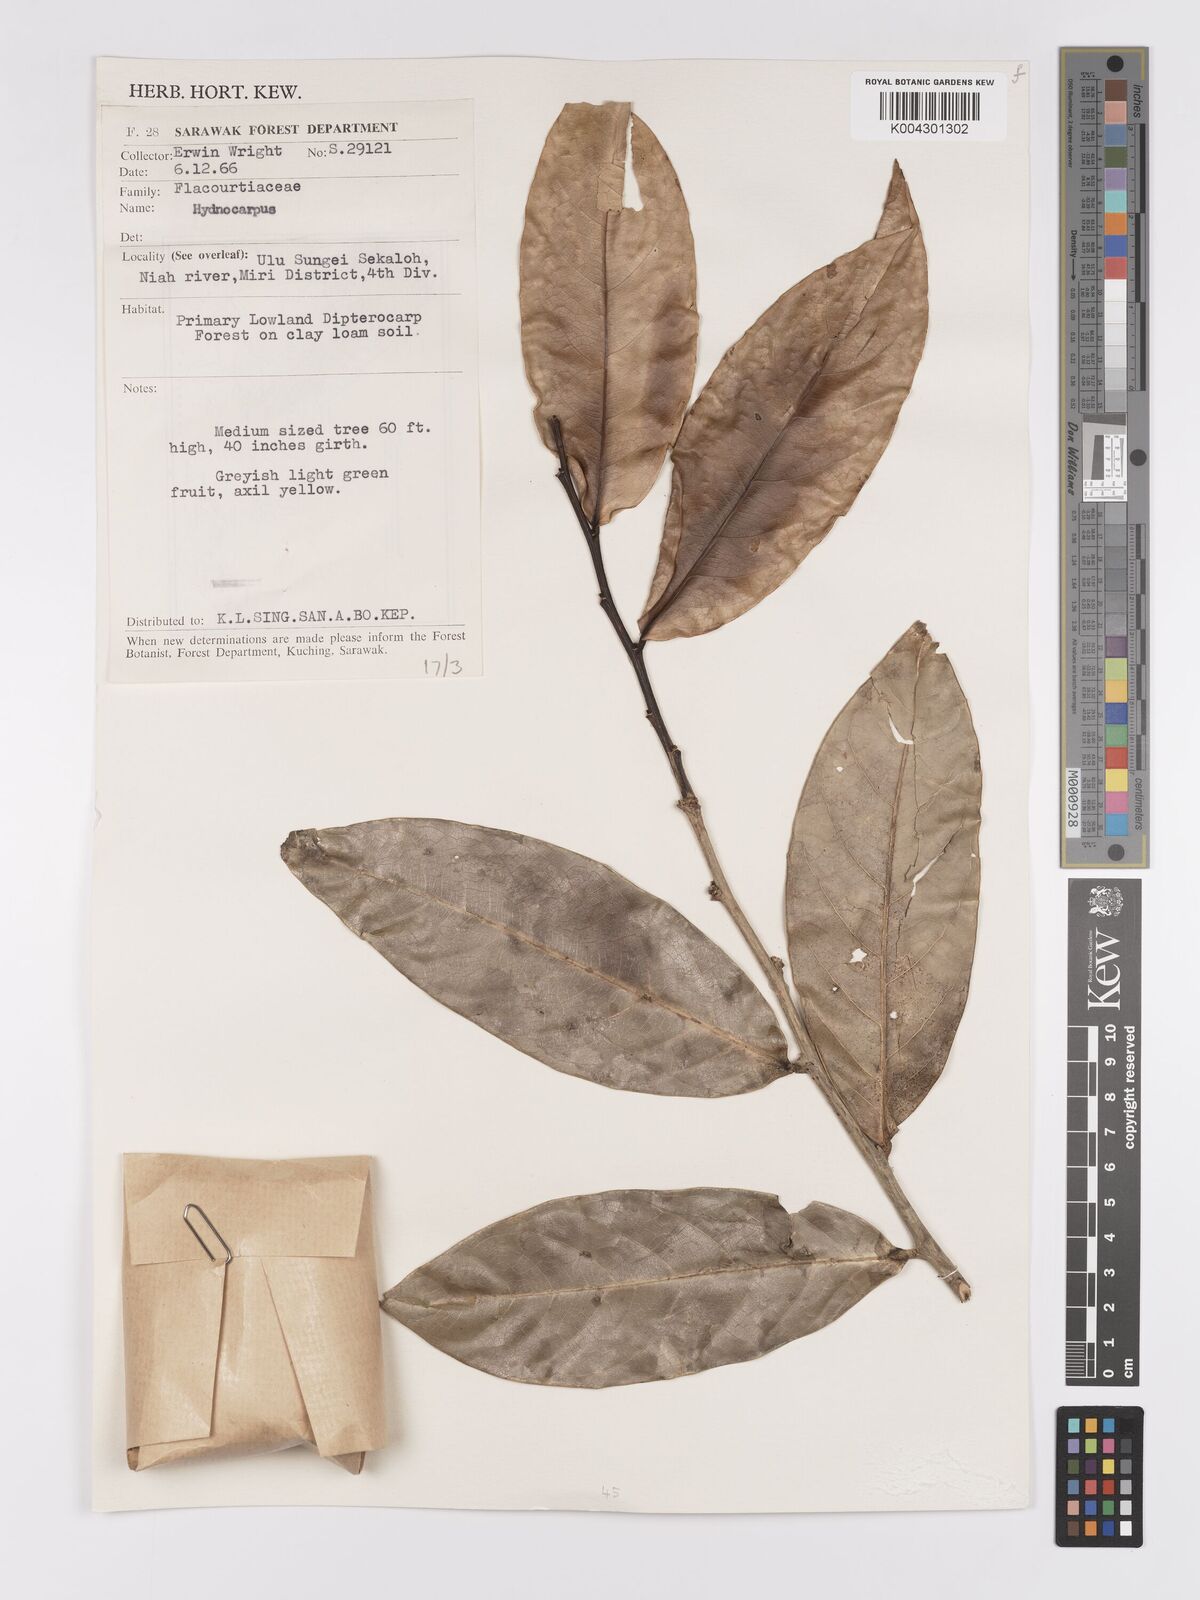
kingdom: Plantae
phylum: Tracheophyta
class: Magnoliopsida
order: Malpighiales
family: Achariaceae
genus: Hydnocarpus
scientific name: Hydnocarpus
